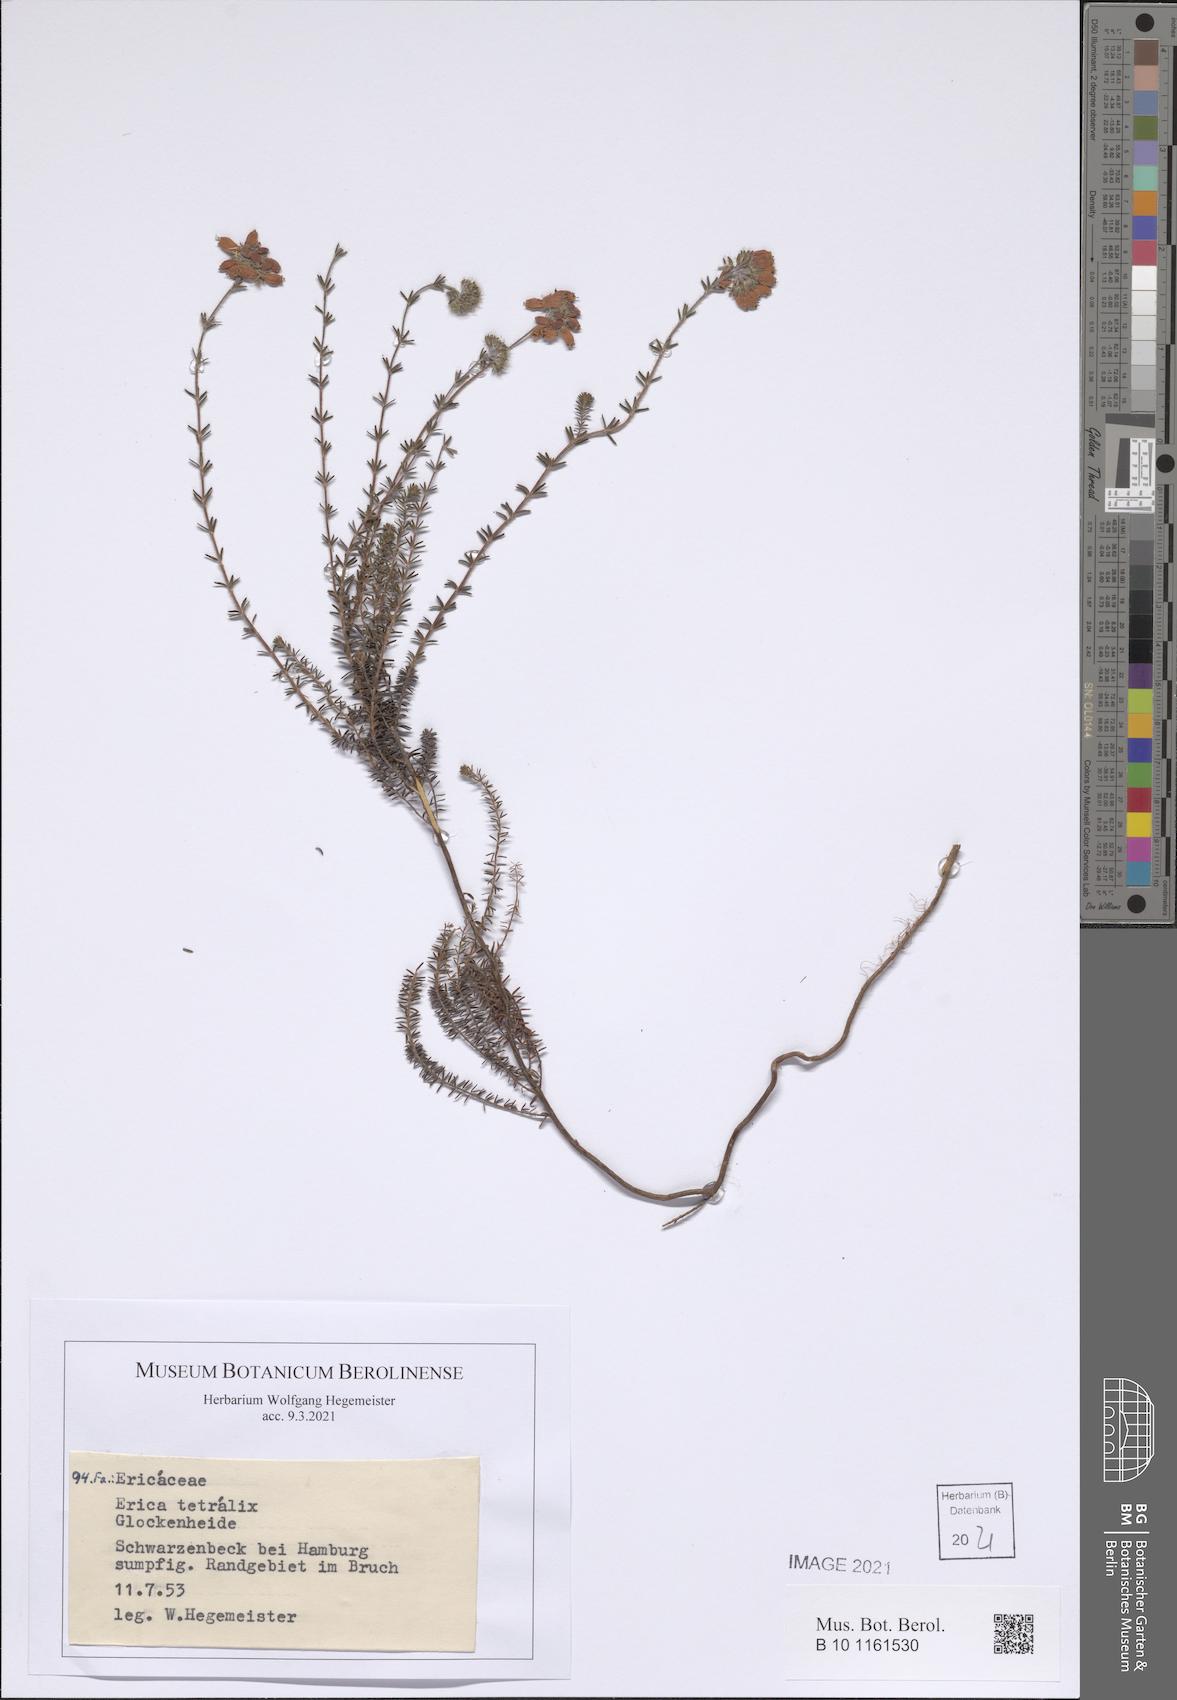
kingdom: Plantae
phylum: Tracheophyta
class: Magnoliopsida
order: Ericales
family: Ericaceae
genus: Erica
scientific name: Erica tetralix
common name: Cross-leaved heath
